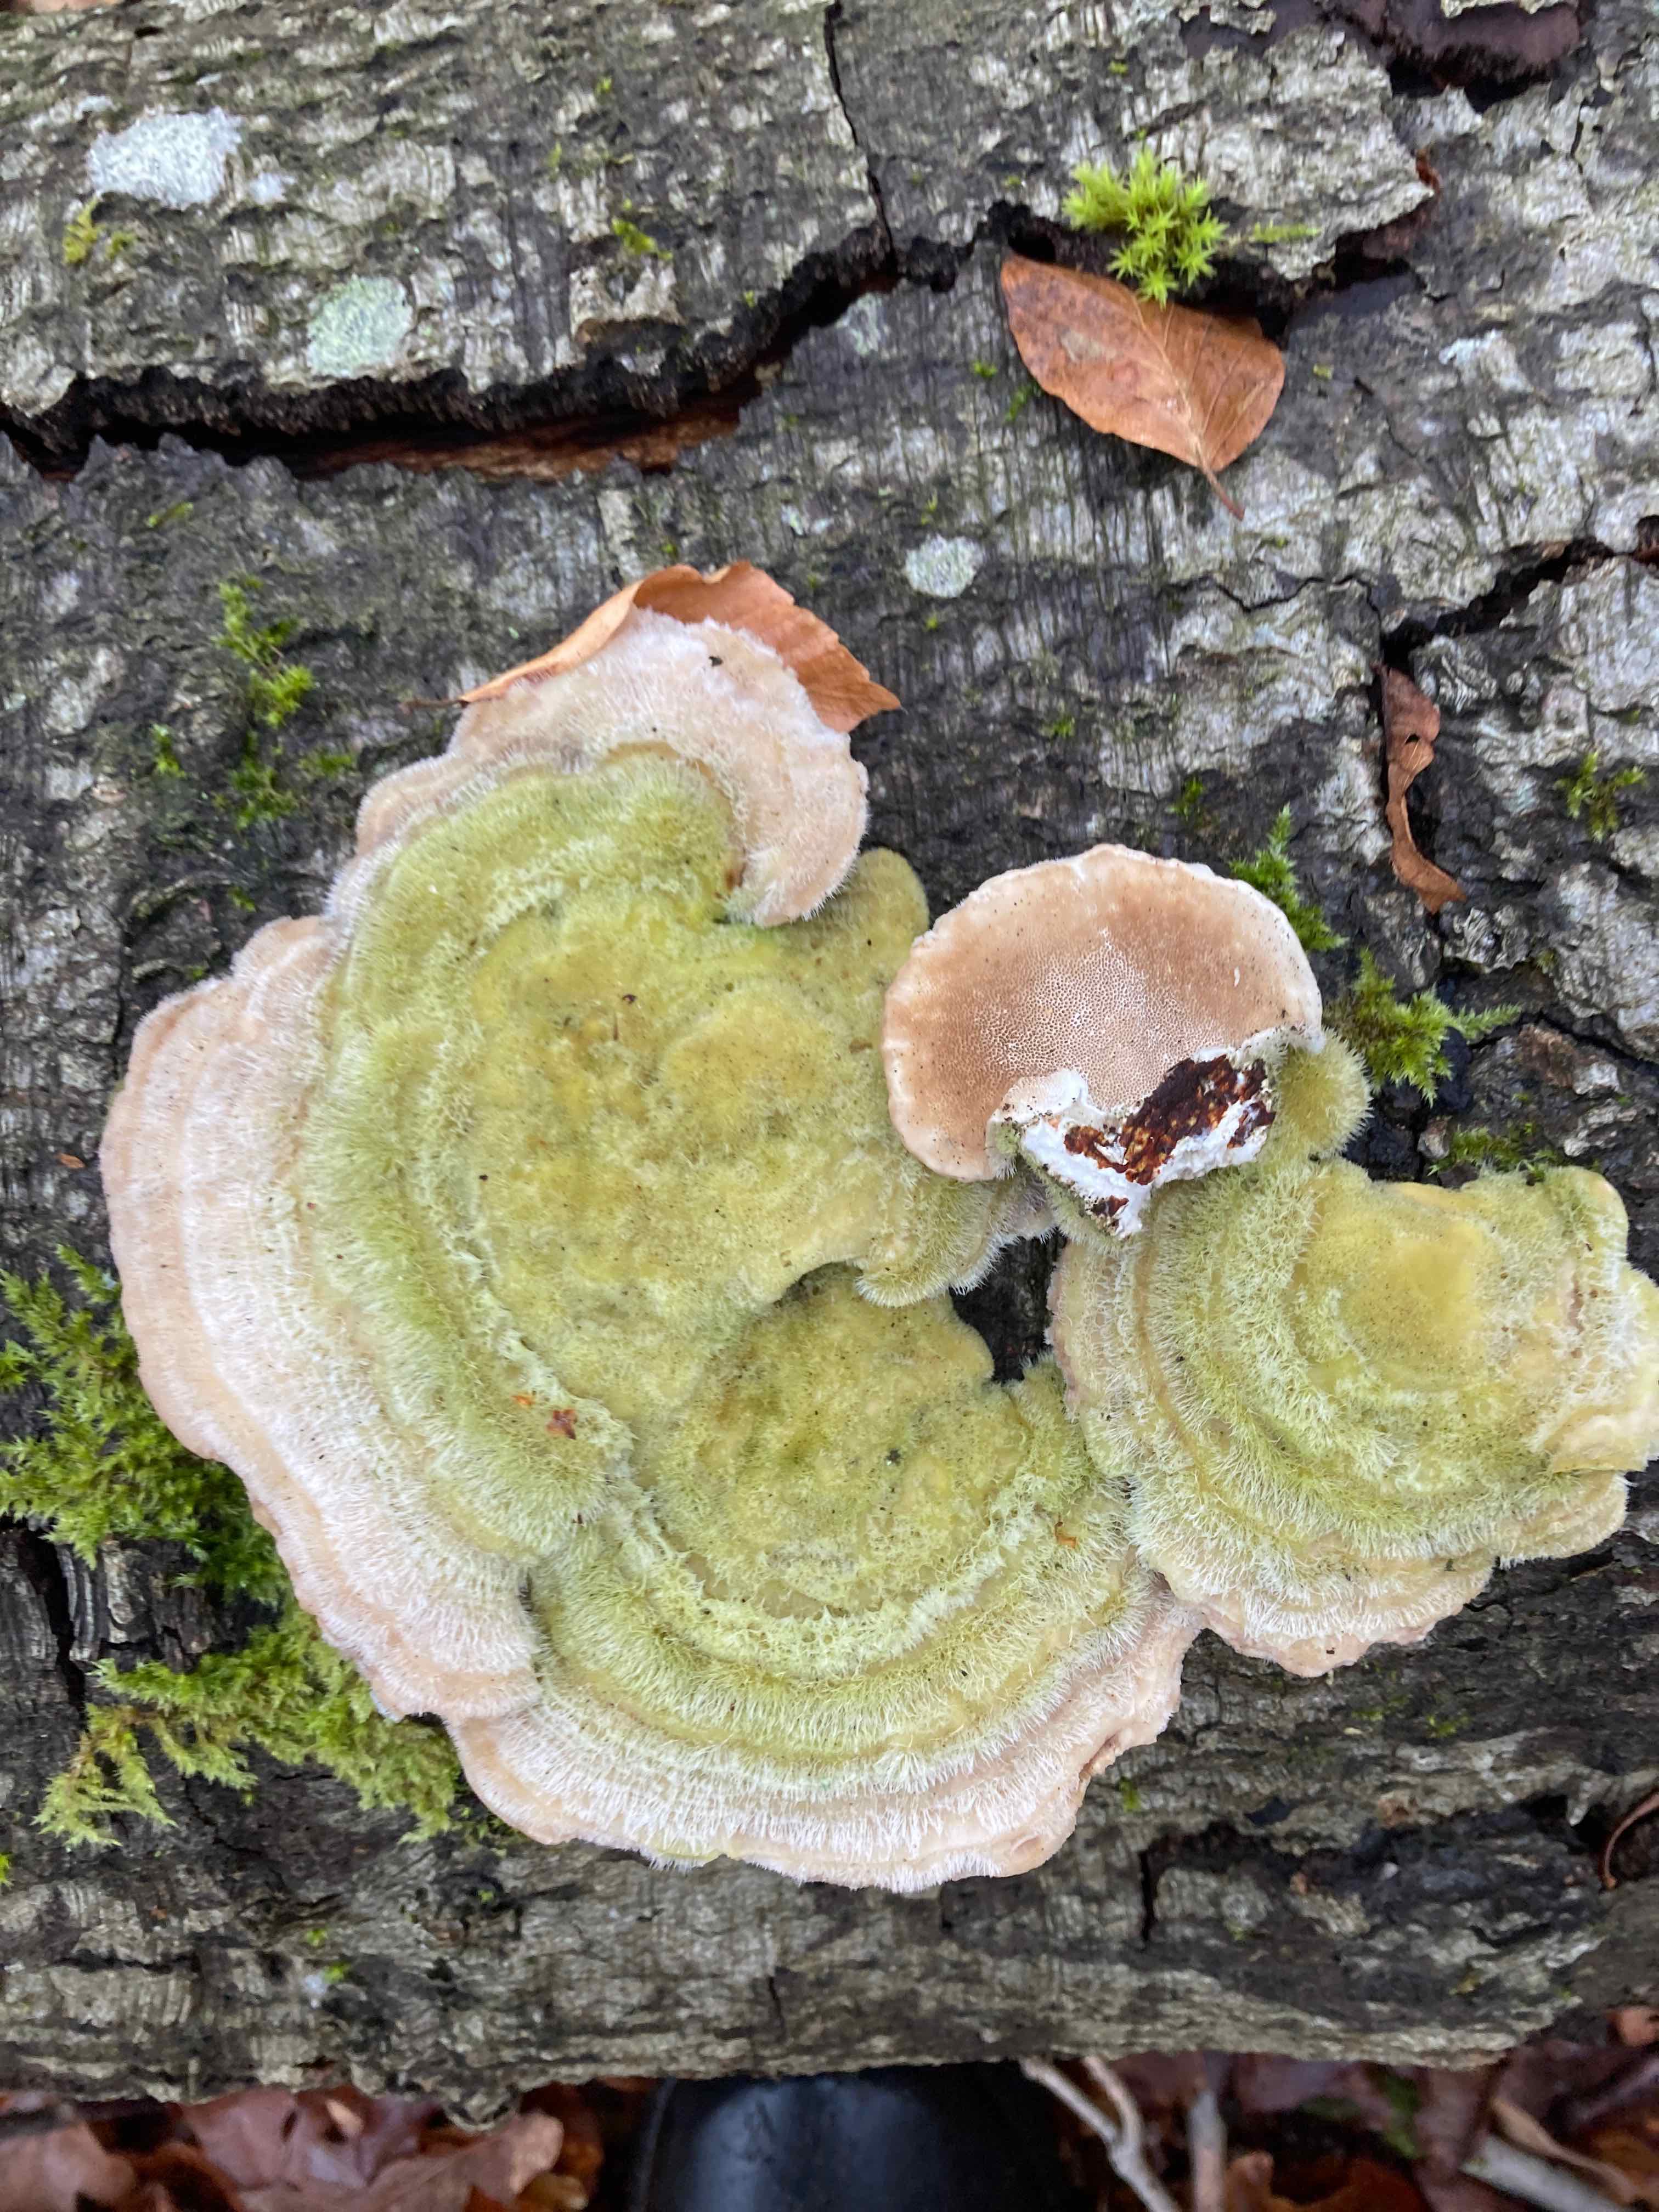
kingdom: Fungi
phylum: Basidiomycota
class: Agaricomycetes
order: Polyporales
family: Polyporaceae
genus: Trametes
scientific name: Trametes hirsuta
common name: håret læderporesvamp
